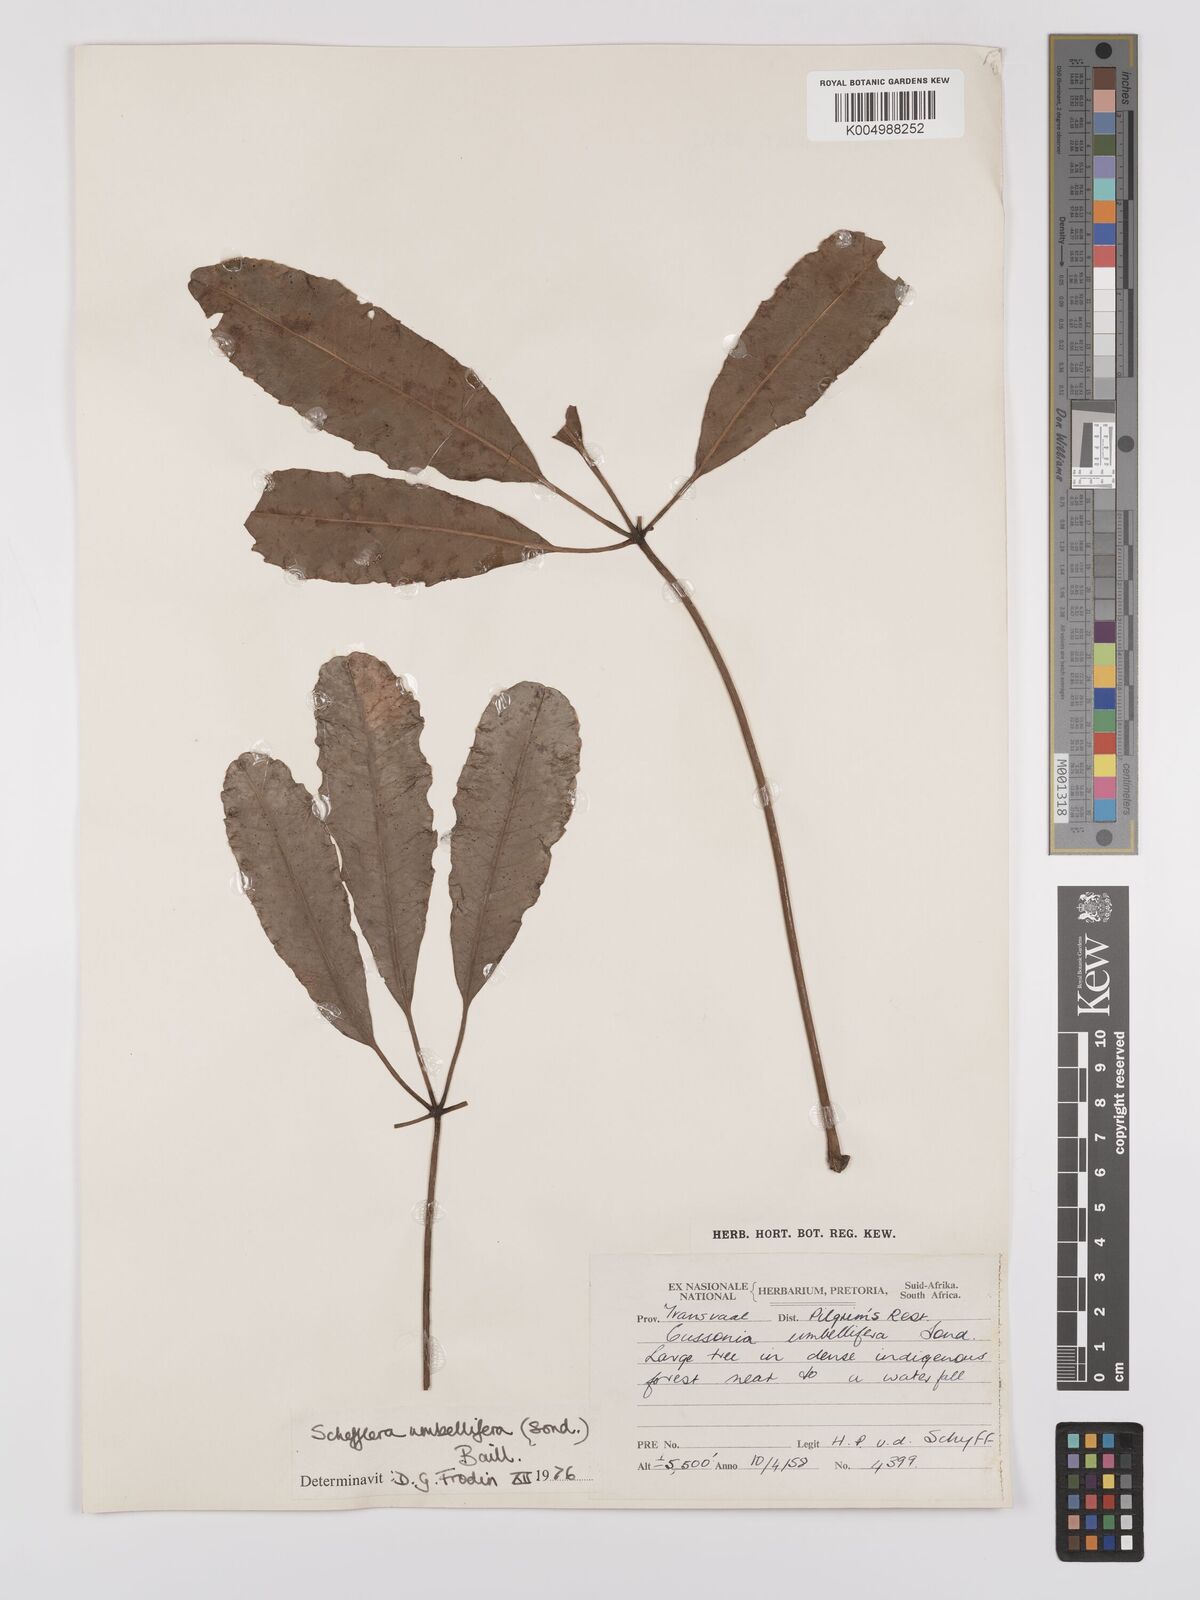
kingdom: Plantae
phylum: Tracheophyta
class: Magnoliopsida
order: Apiales
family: Araliaceae
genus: Neocussonia
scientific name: Neocussonia umbellifera
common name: False cabbage tree
